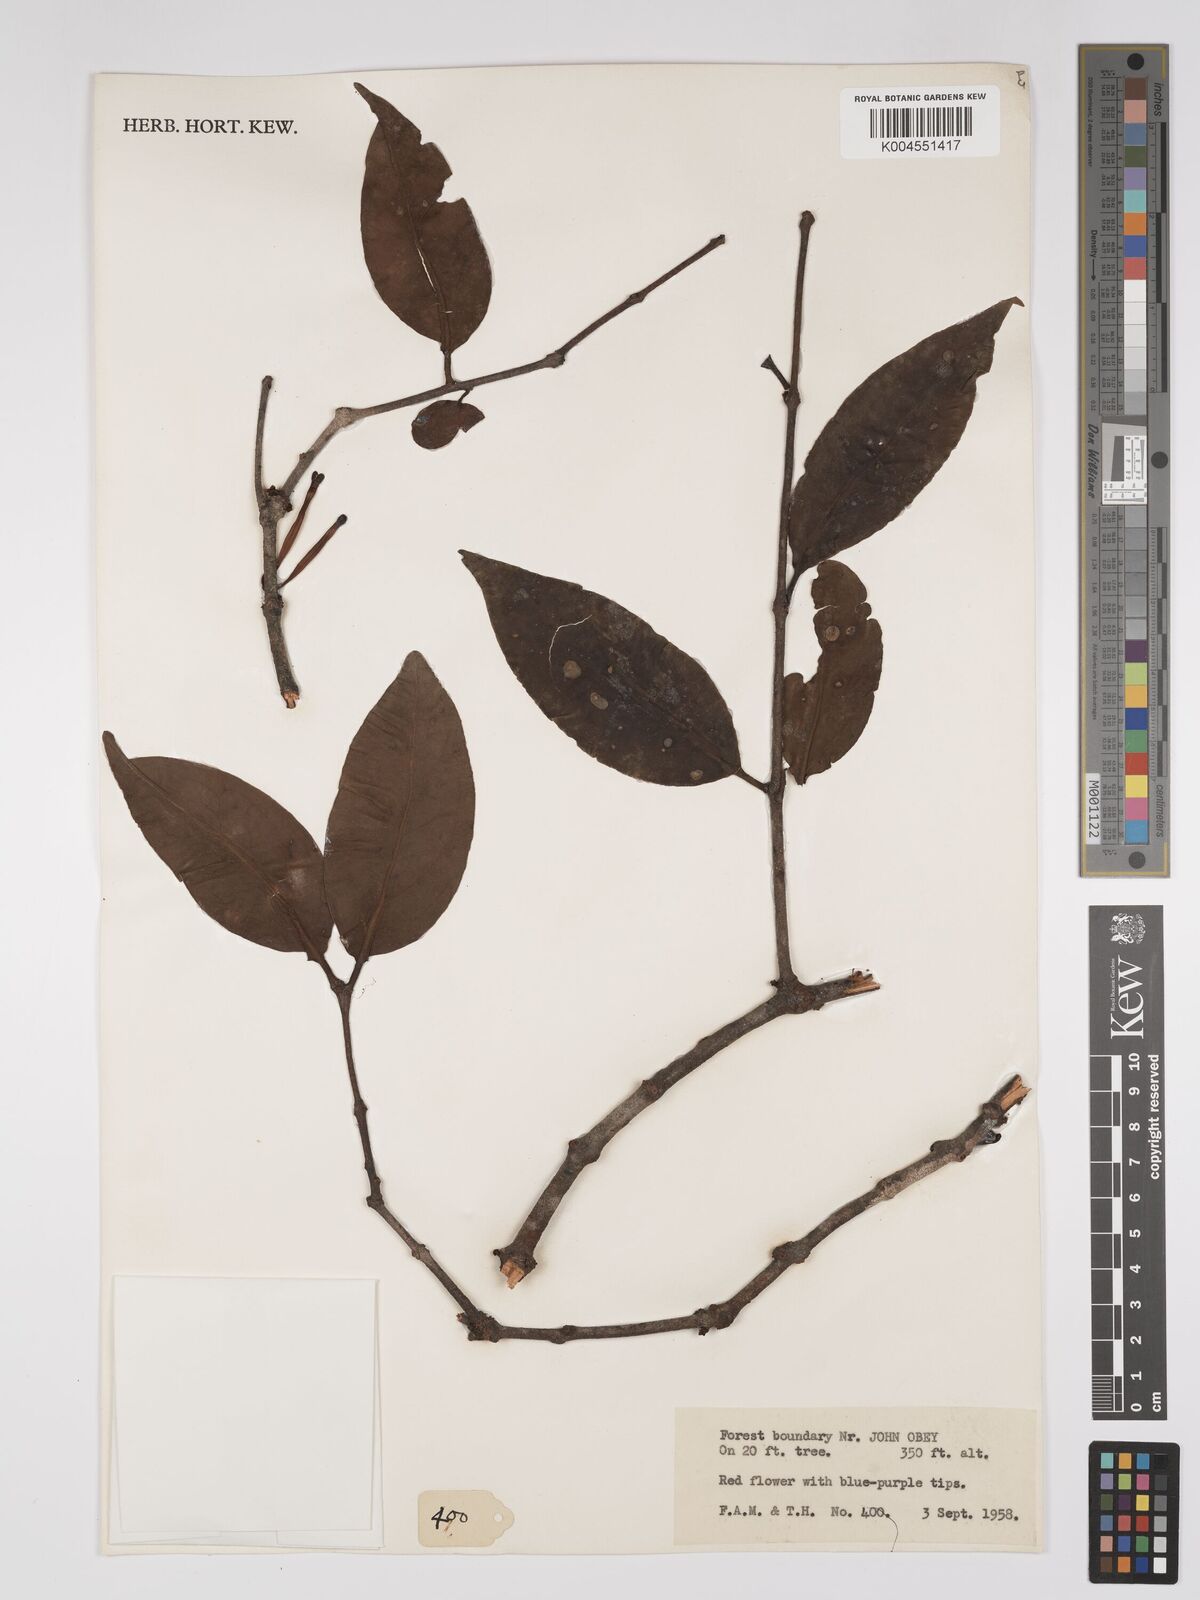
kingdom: Plantae
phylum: Tracheophyta
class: Magnoliopsida
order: Santalales
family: Loranthaceae
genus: Tapinanthus
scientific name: Tapinanthus bangwensis
